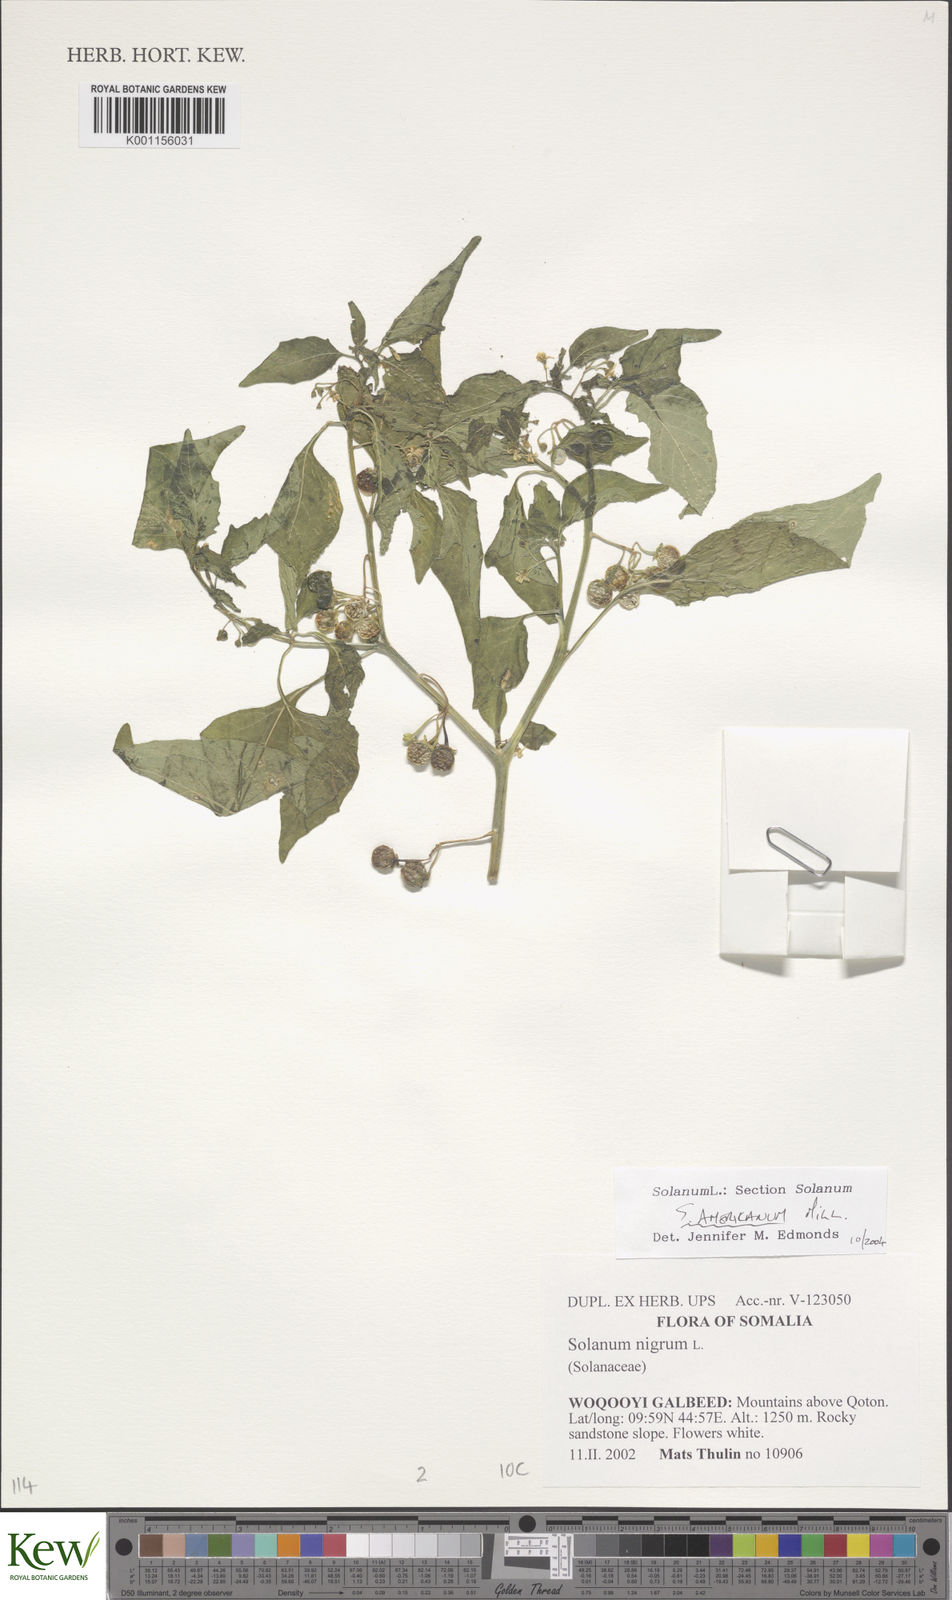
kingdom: Plantae
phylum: Tracheophyta
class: Magnoliopsida
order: Solanales
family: Solanaceae
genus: Solanum
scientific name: Solanum tarderemotum
